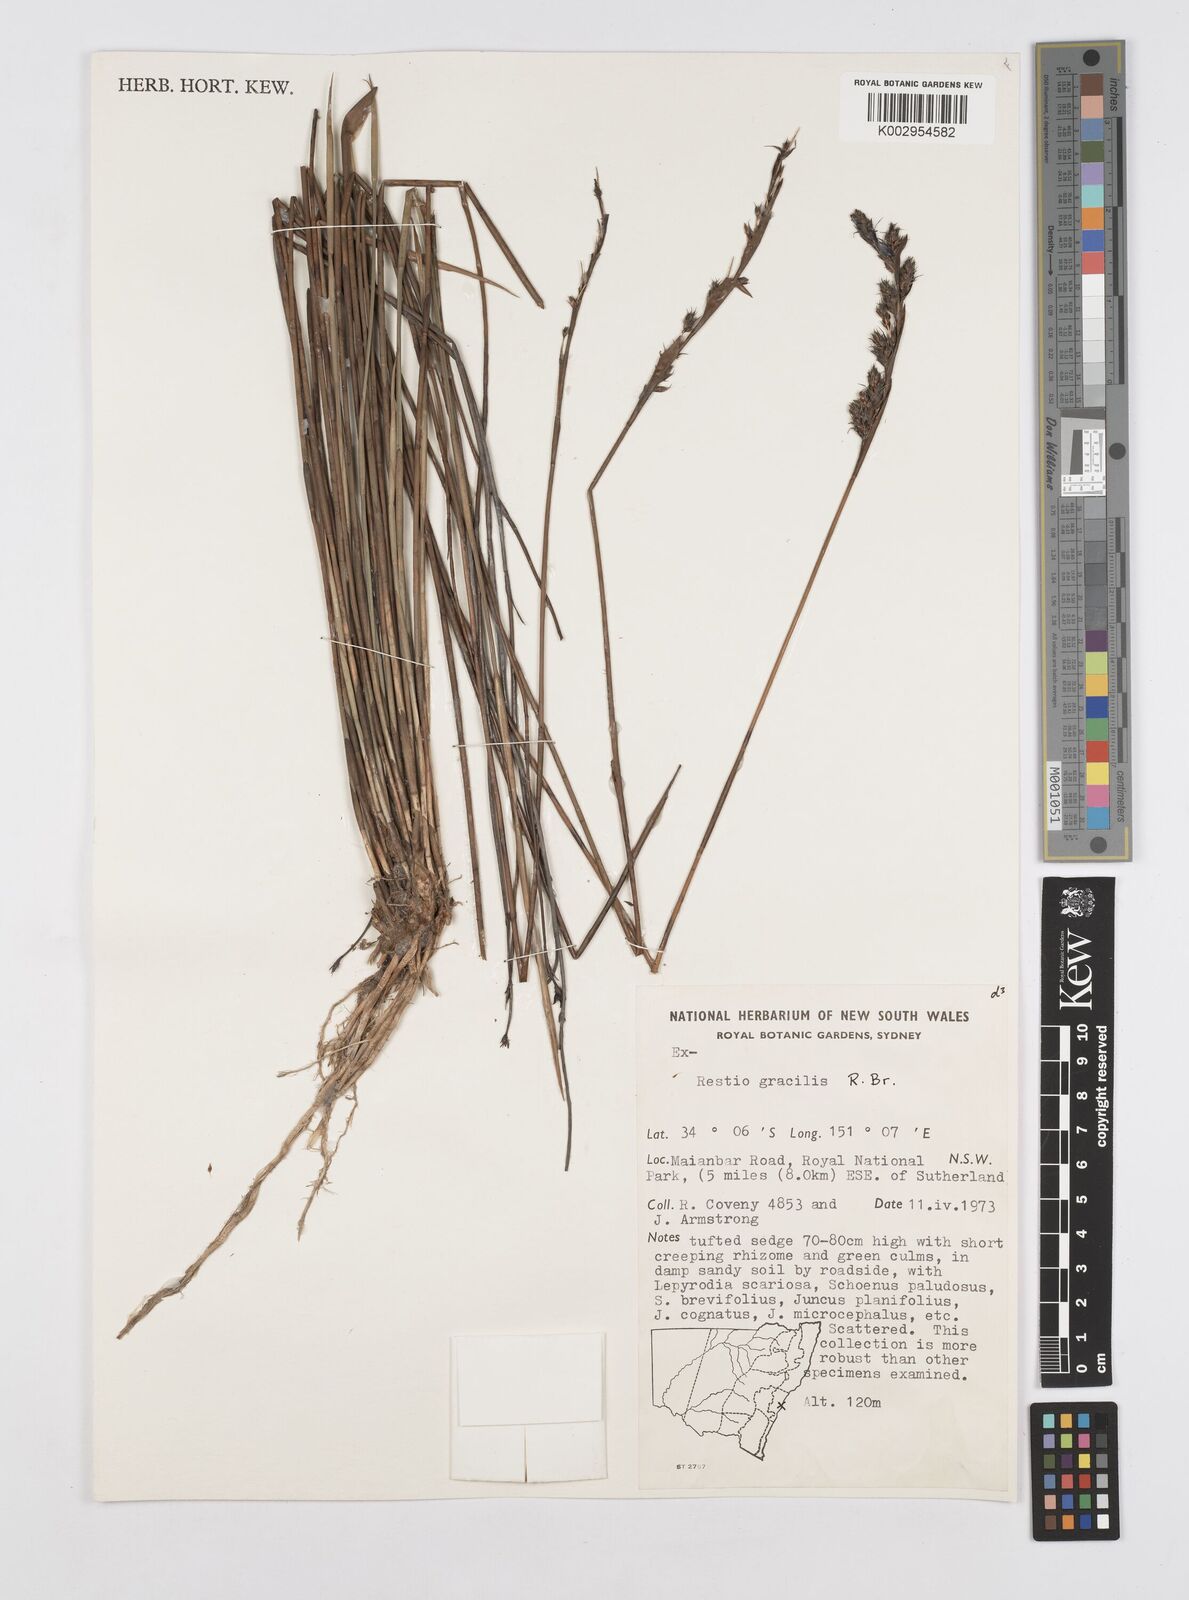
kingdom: Plantae
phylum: Tracheophyta
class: Liliopsida
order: Poales
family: Restionaceae
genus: Baloskion
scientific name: Baloskion gracile
